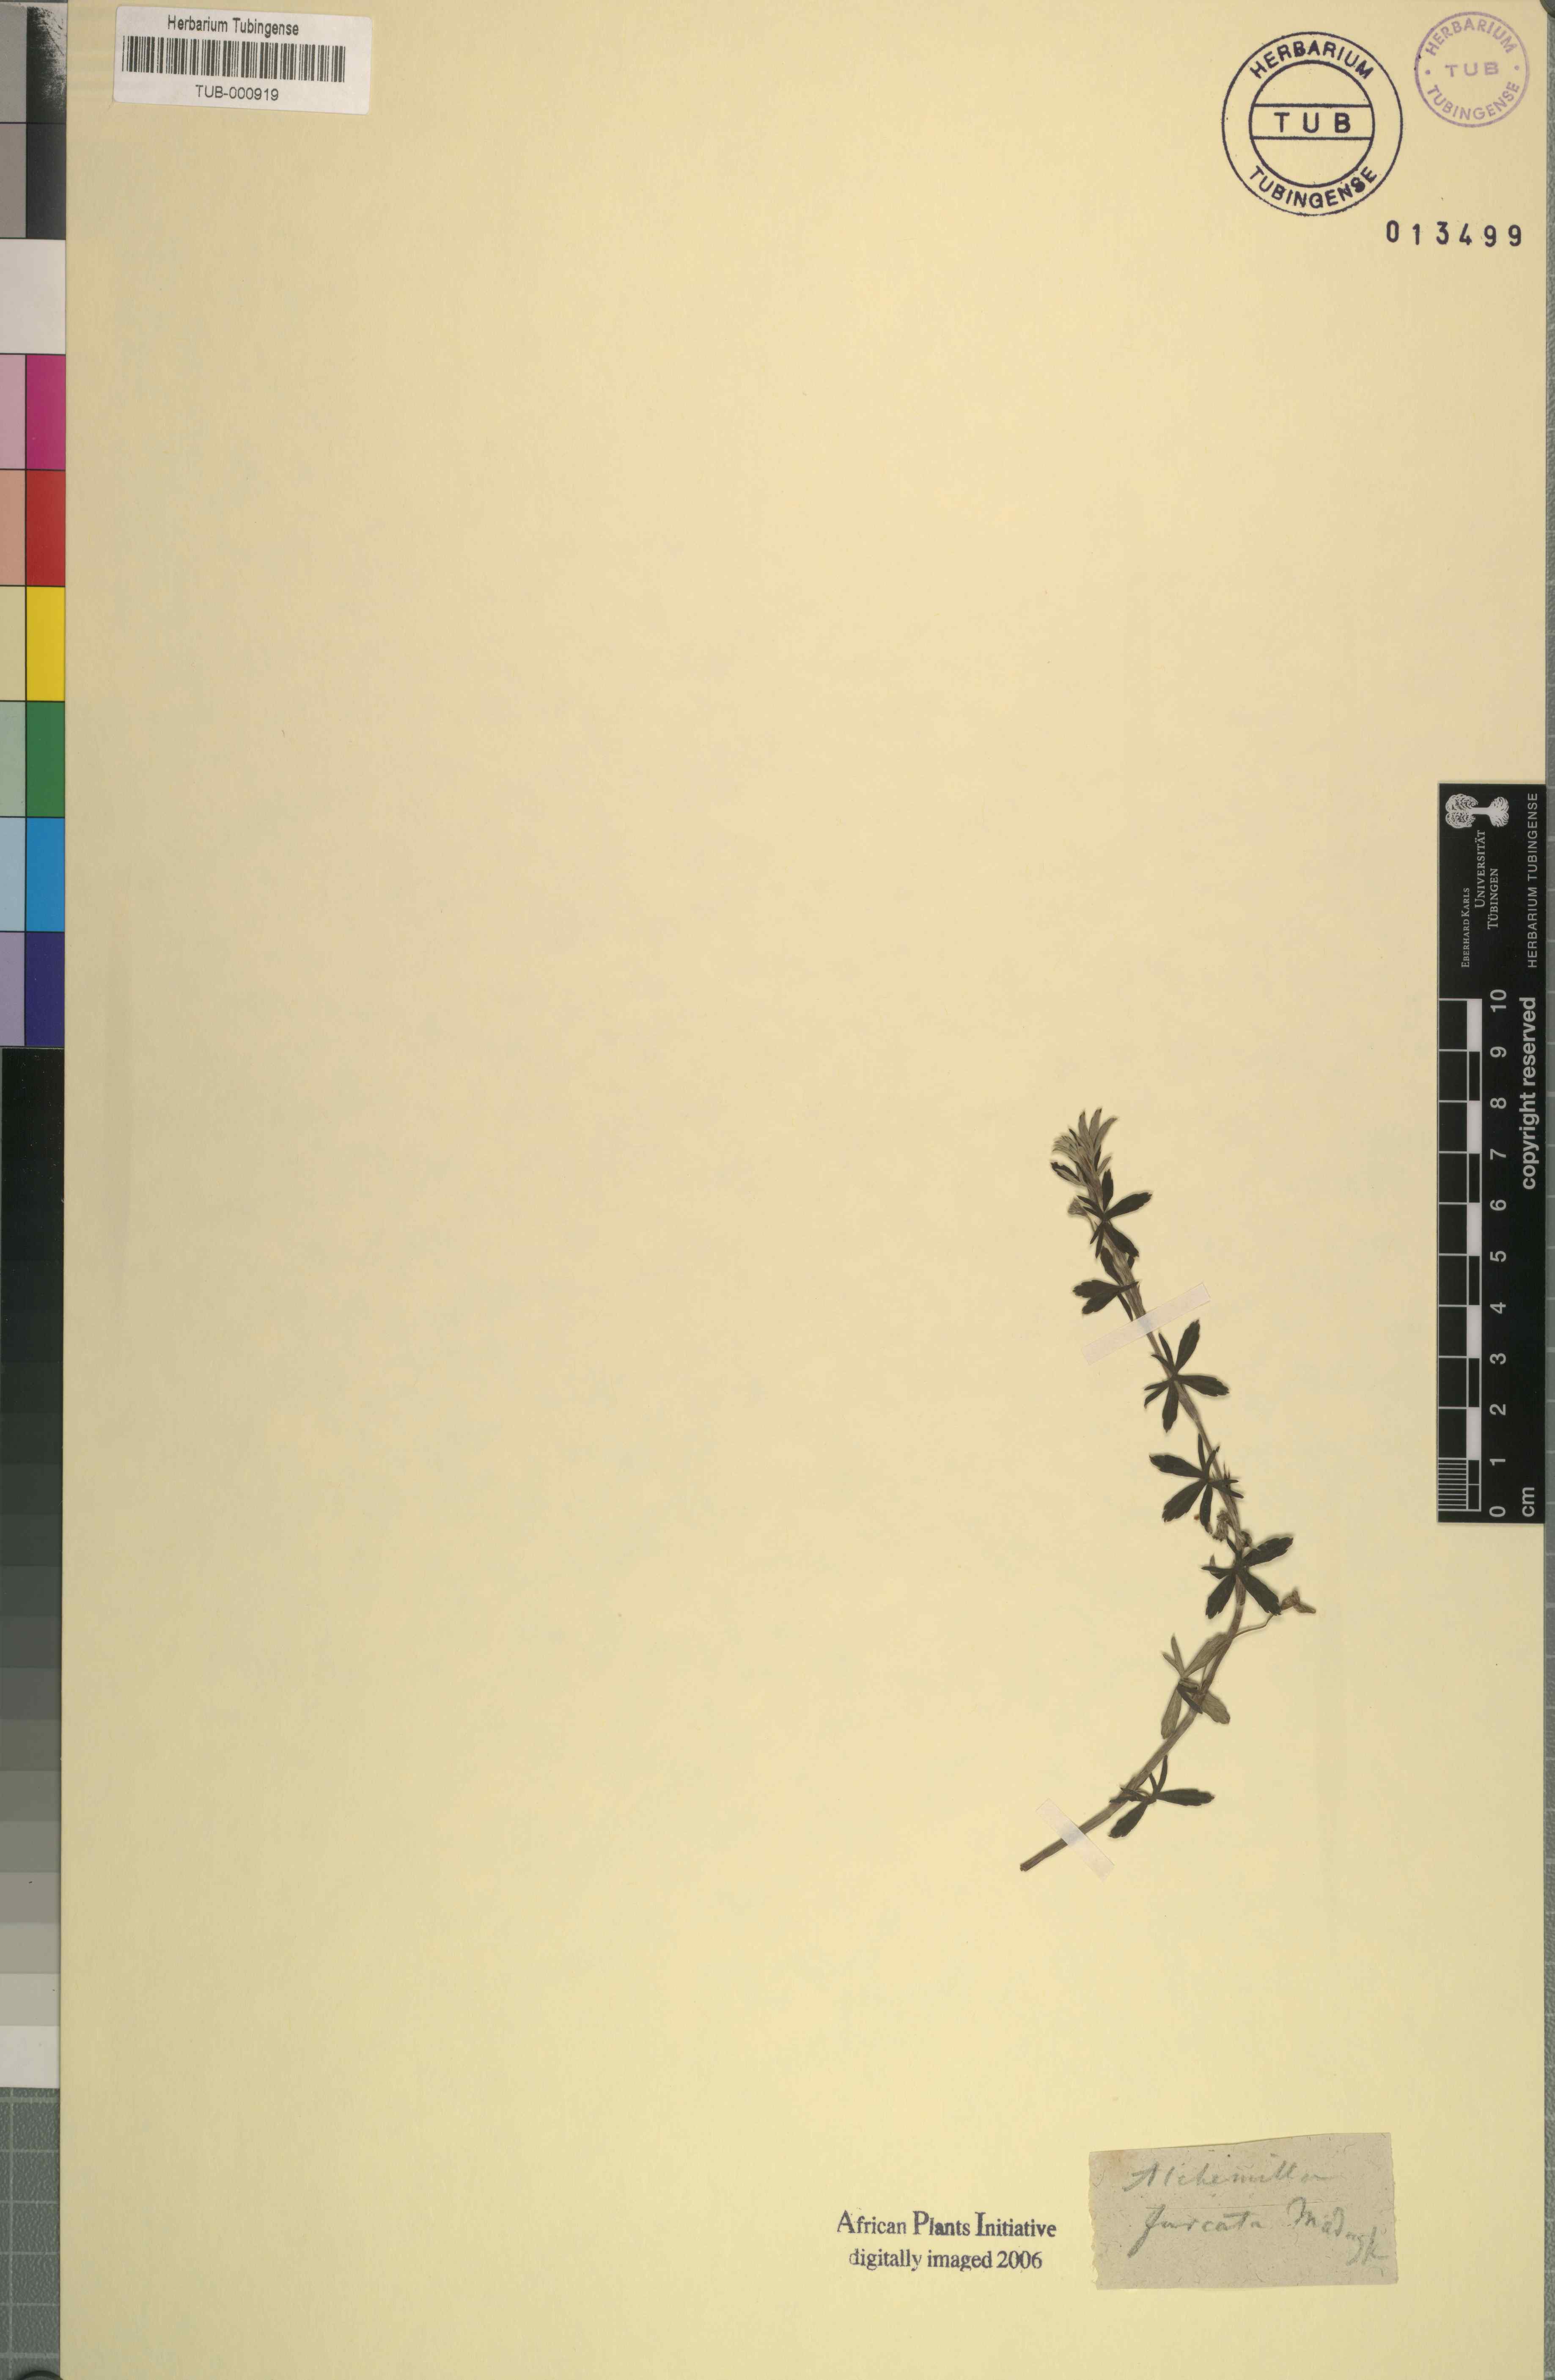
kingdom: Plantae
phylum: Tracheophyta
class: Magnoliopsida
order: Rosales
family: Rosaceae
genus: Alchemilla
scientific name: Alchemilla
